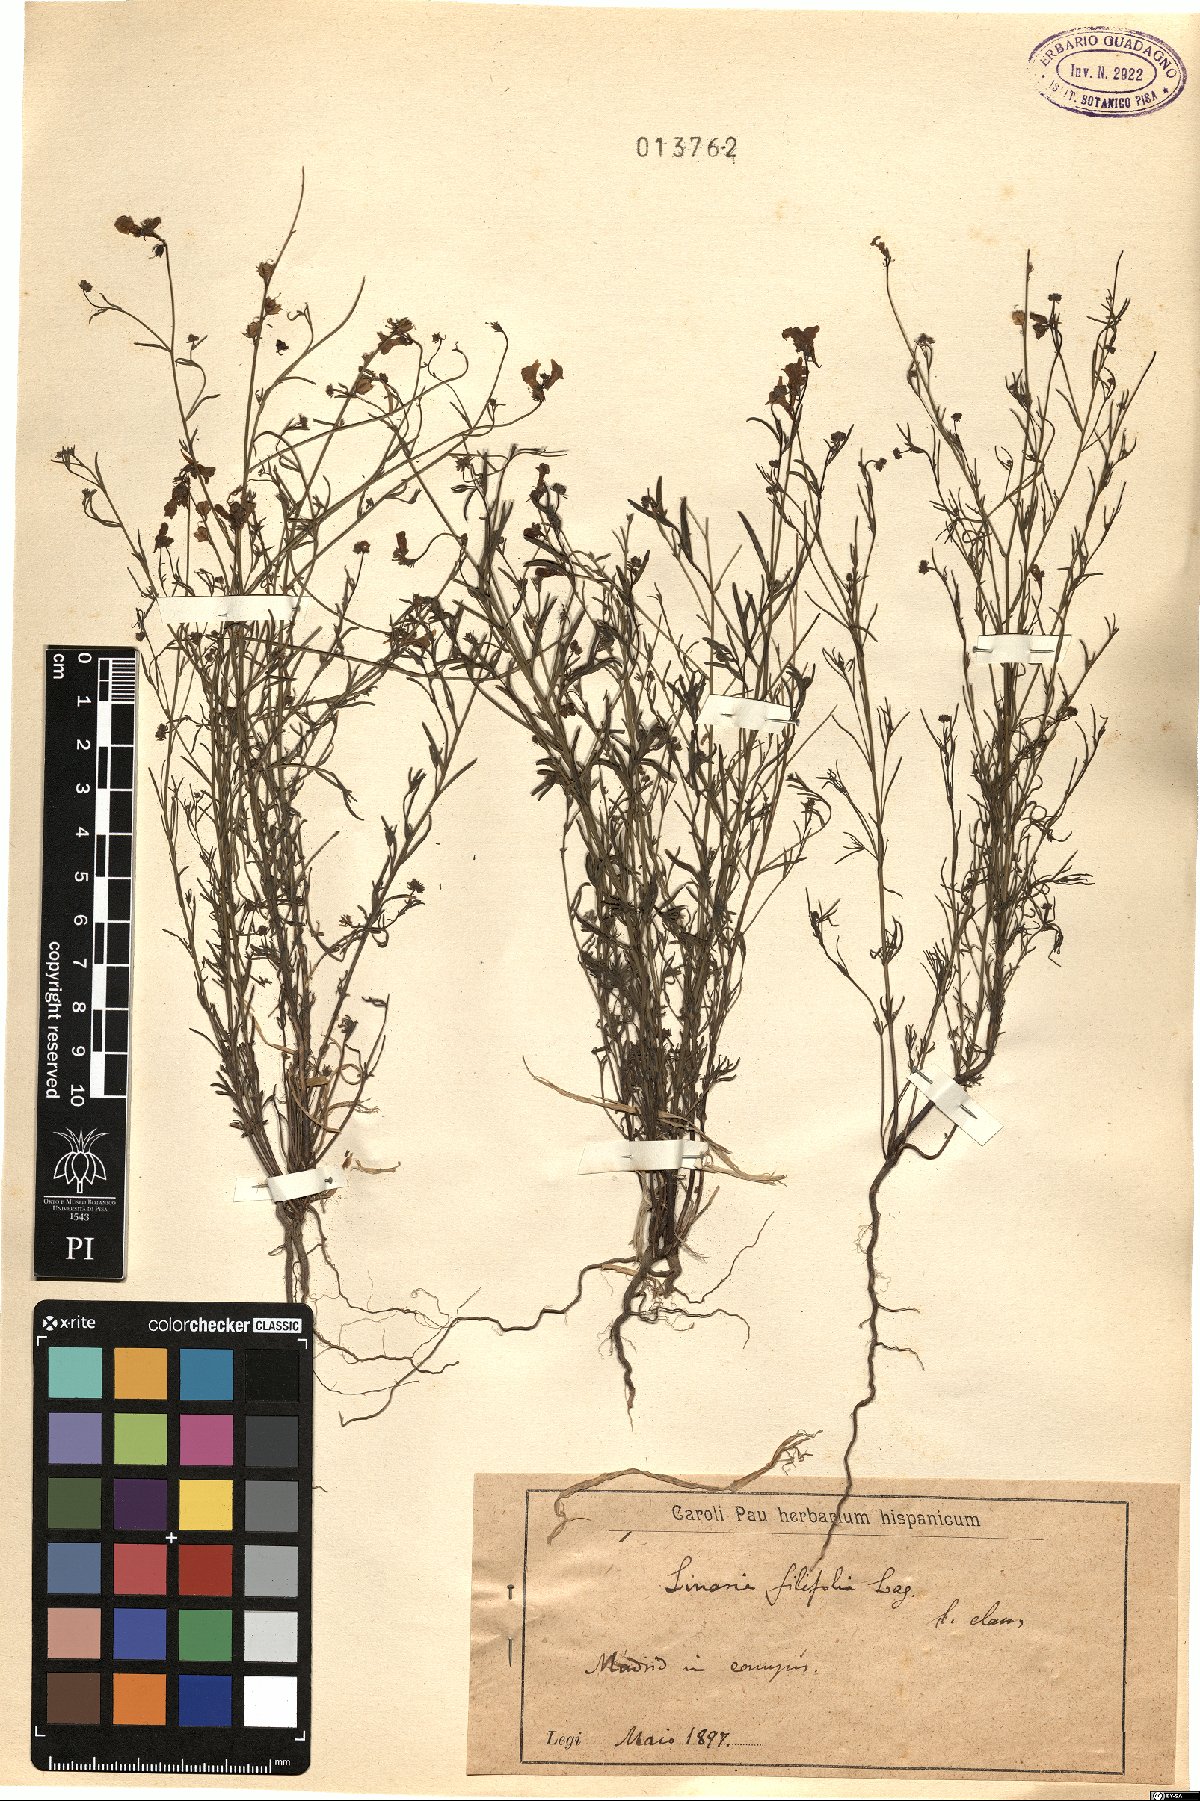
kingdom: Plantae
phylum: Tracheophyta
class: Magnoliopsida
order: Lamiales
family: Plantaginaceae
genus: Linaria
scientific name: Linaria bipunctata
